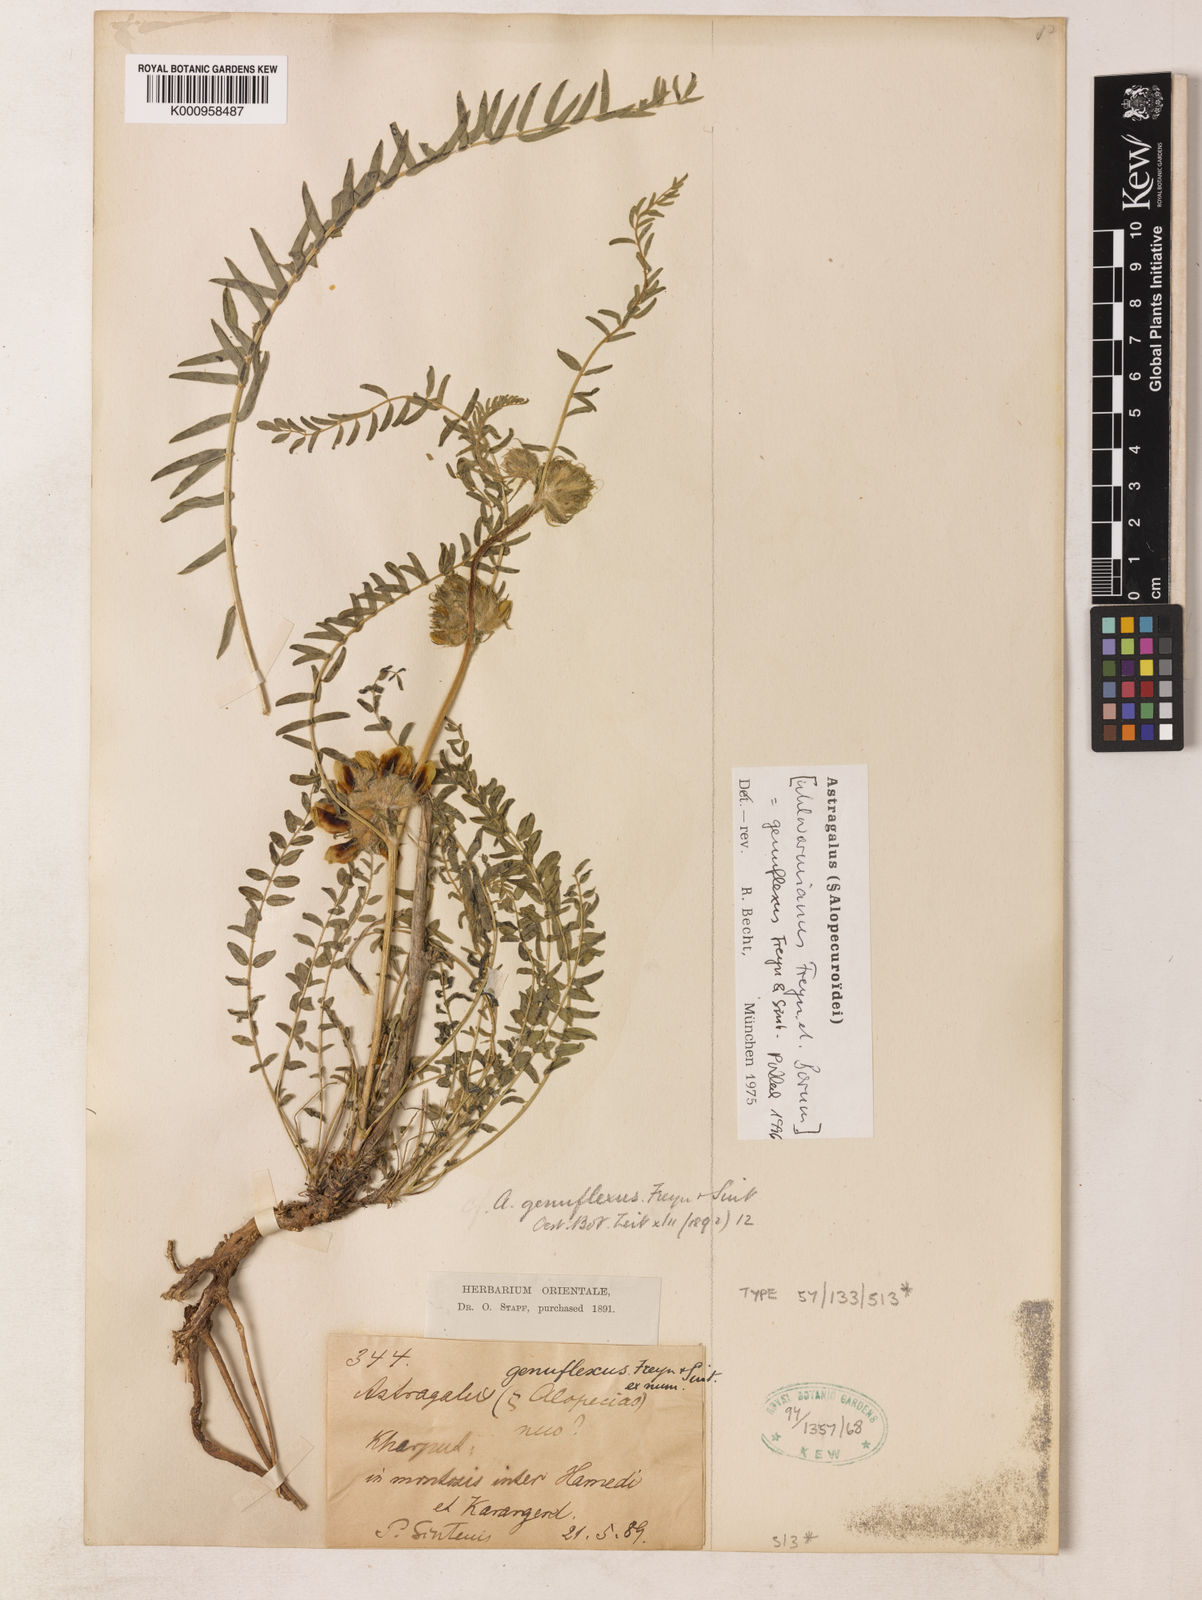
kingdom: Plantae
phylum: Tracheophyta
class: Magnoliopsida
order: Fabales
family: Fabaceae
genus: Astragalus
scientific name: Astragalus genuflexus
